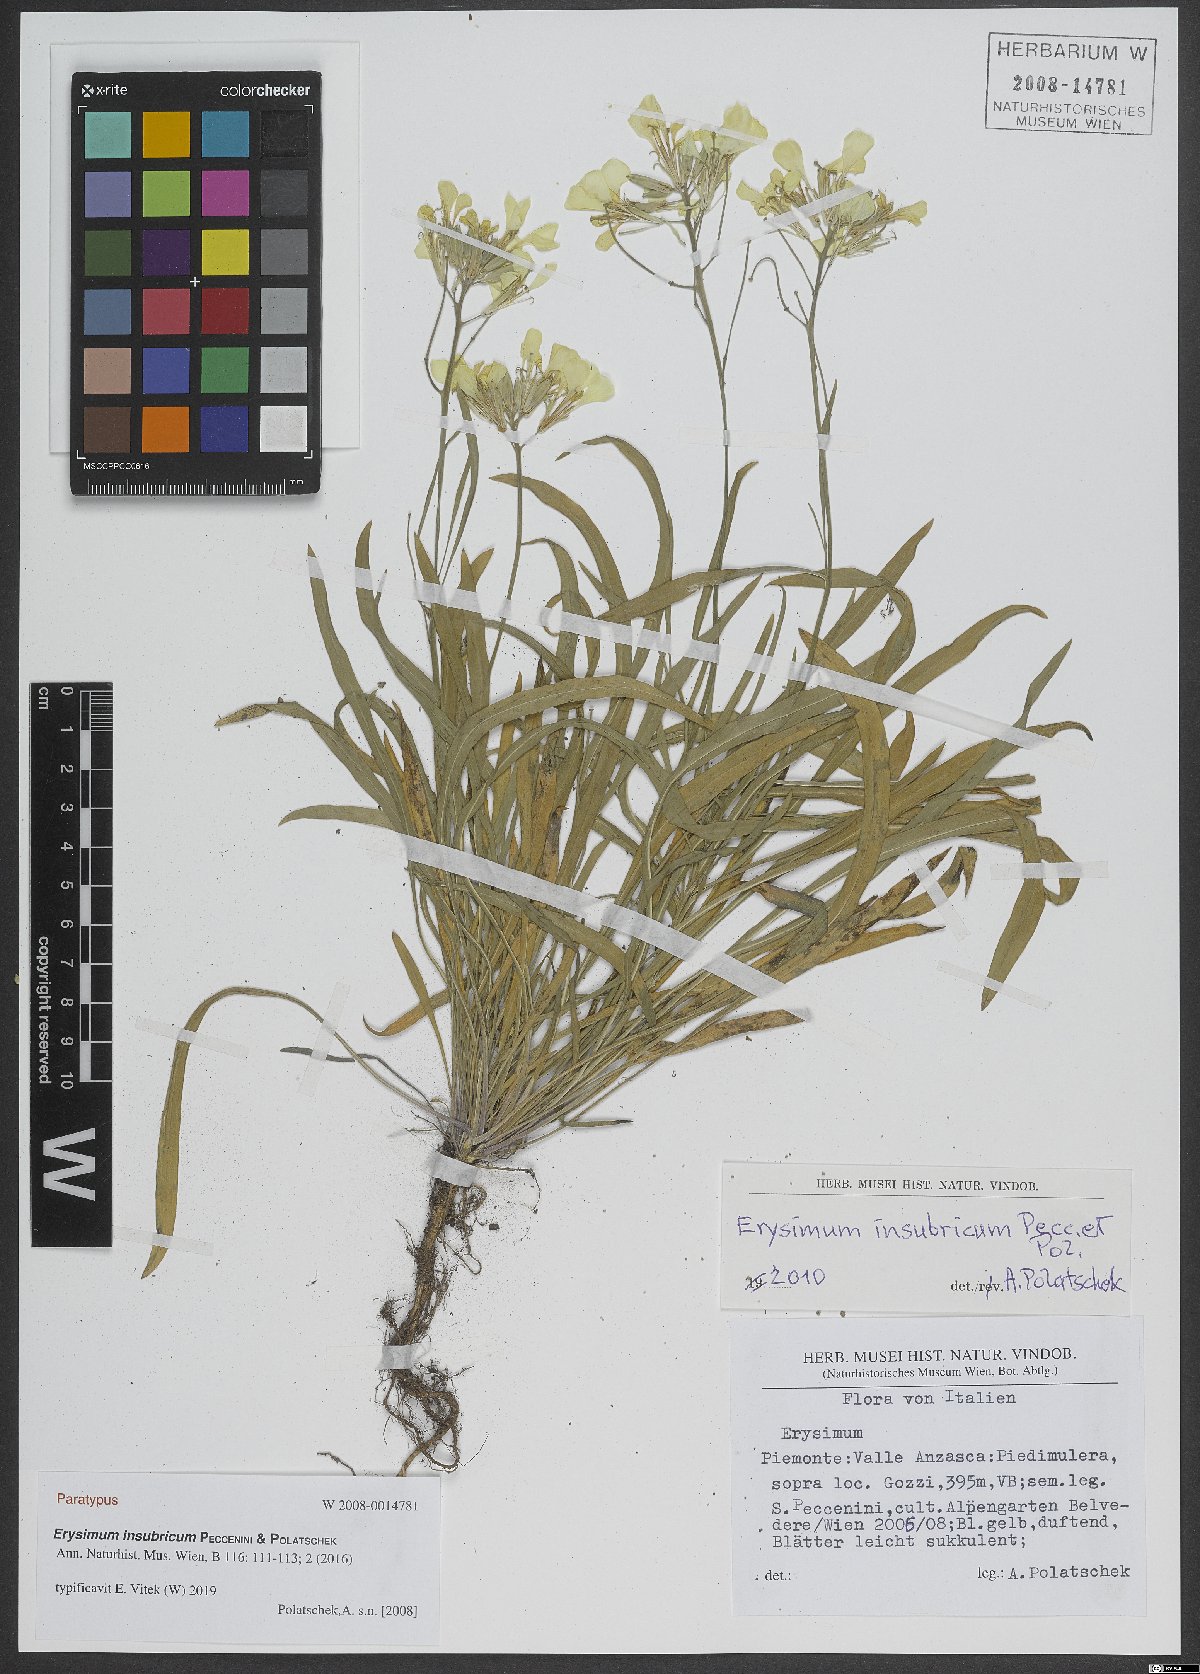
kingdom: Plantae
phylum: Tracheophyta
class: Magnoliopsida
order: Brassicales
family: Brassicaceae
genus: Erysimum
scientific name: Erysimum insubricum
